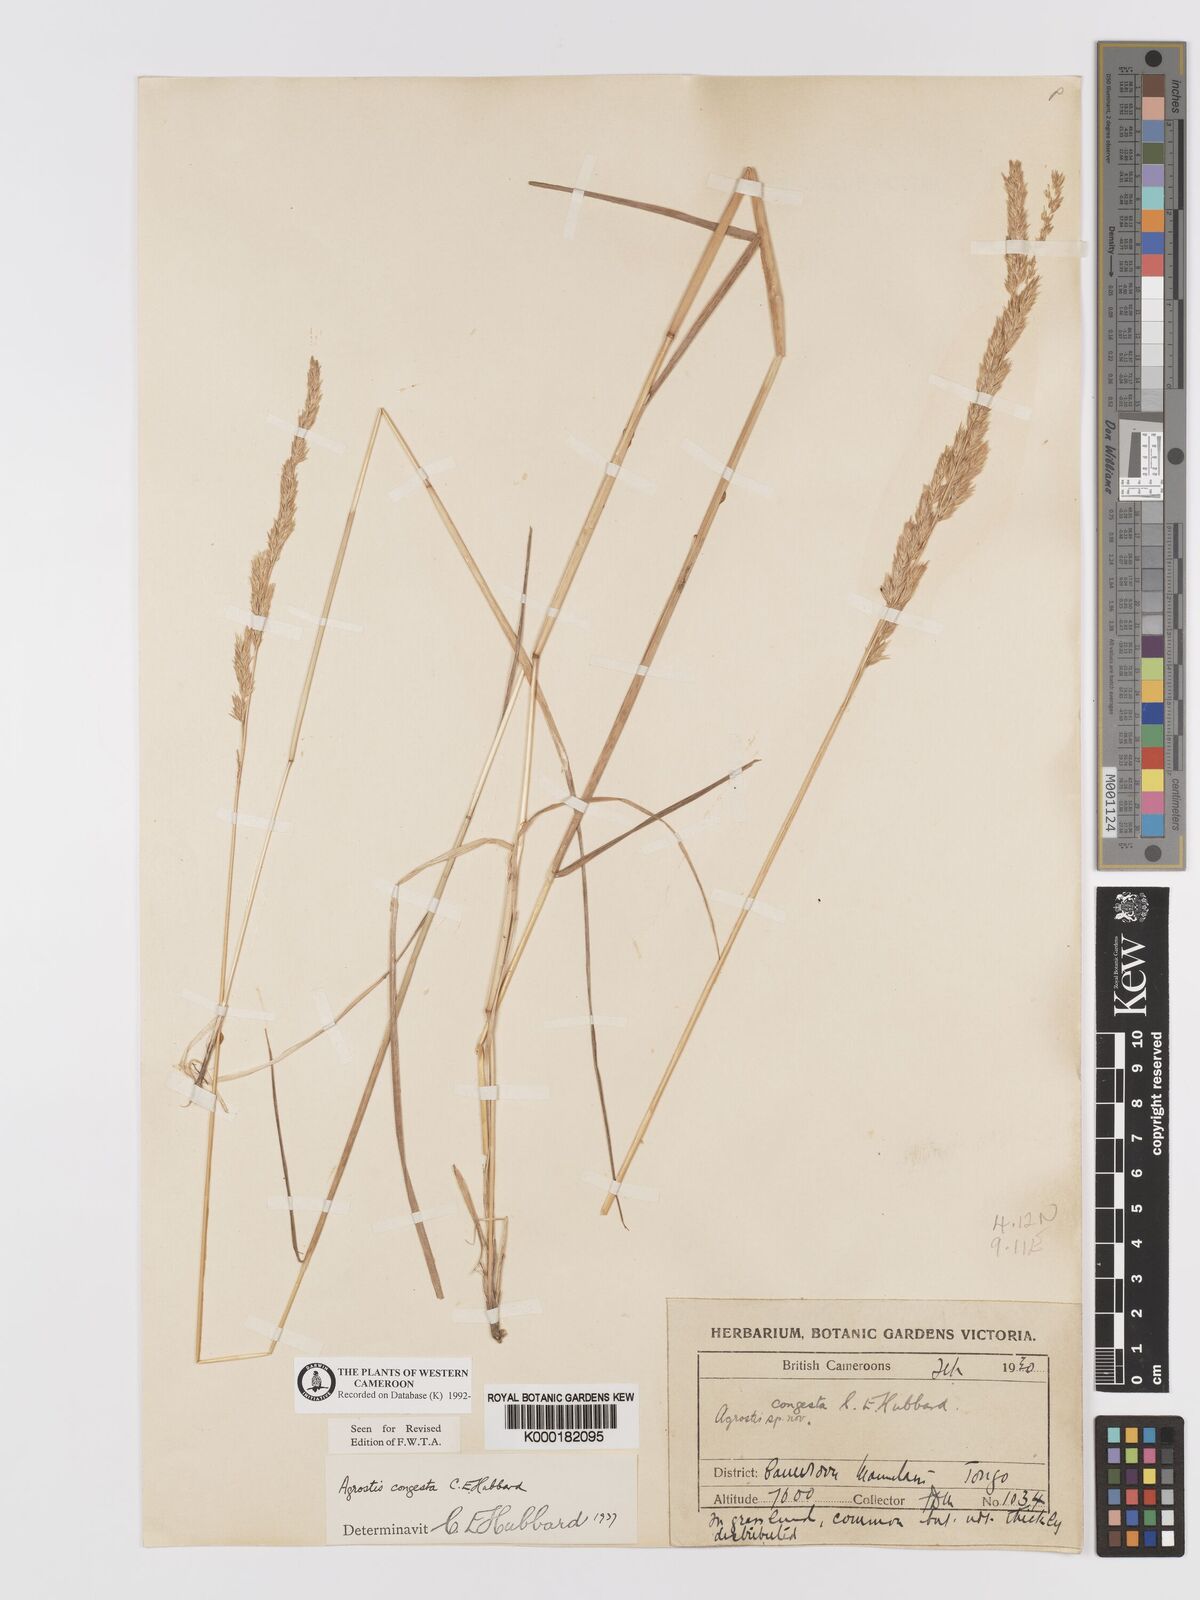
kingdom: Plantae
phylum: Tracheophyta
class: Liliopsida
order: Poales
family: Poaceae
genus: Agrostis
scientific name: Agrostis quinqueseta
